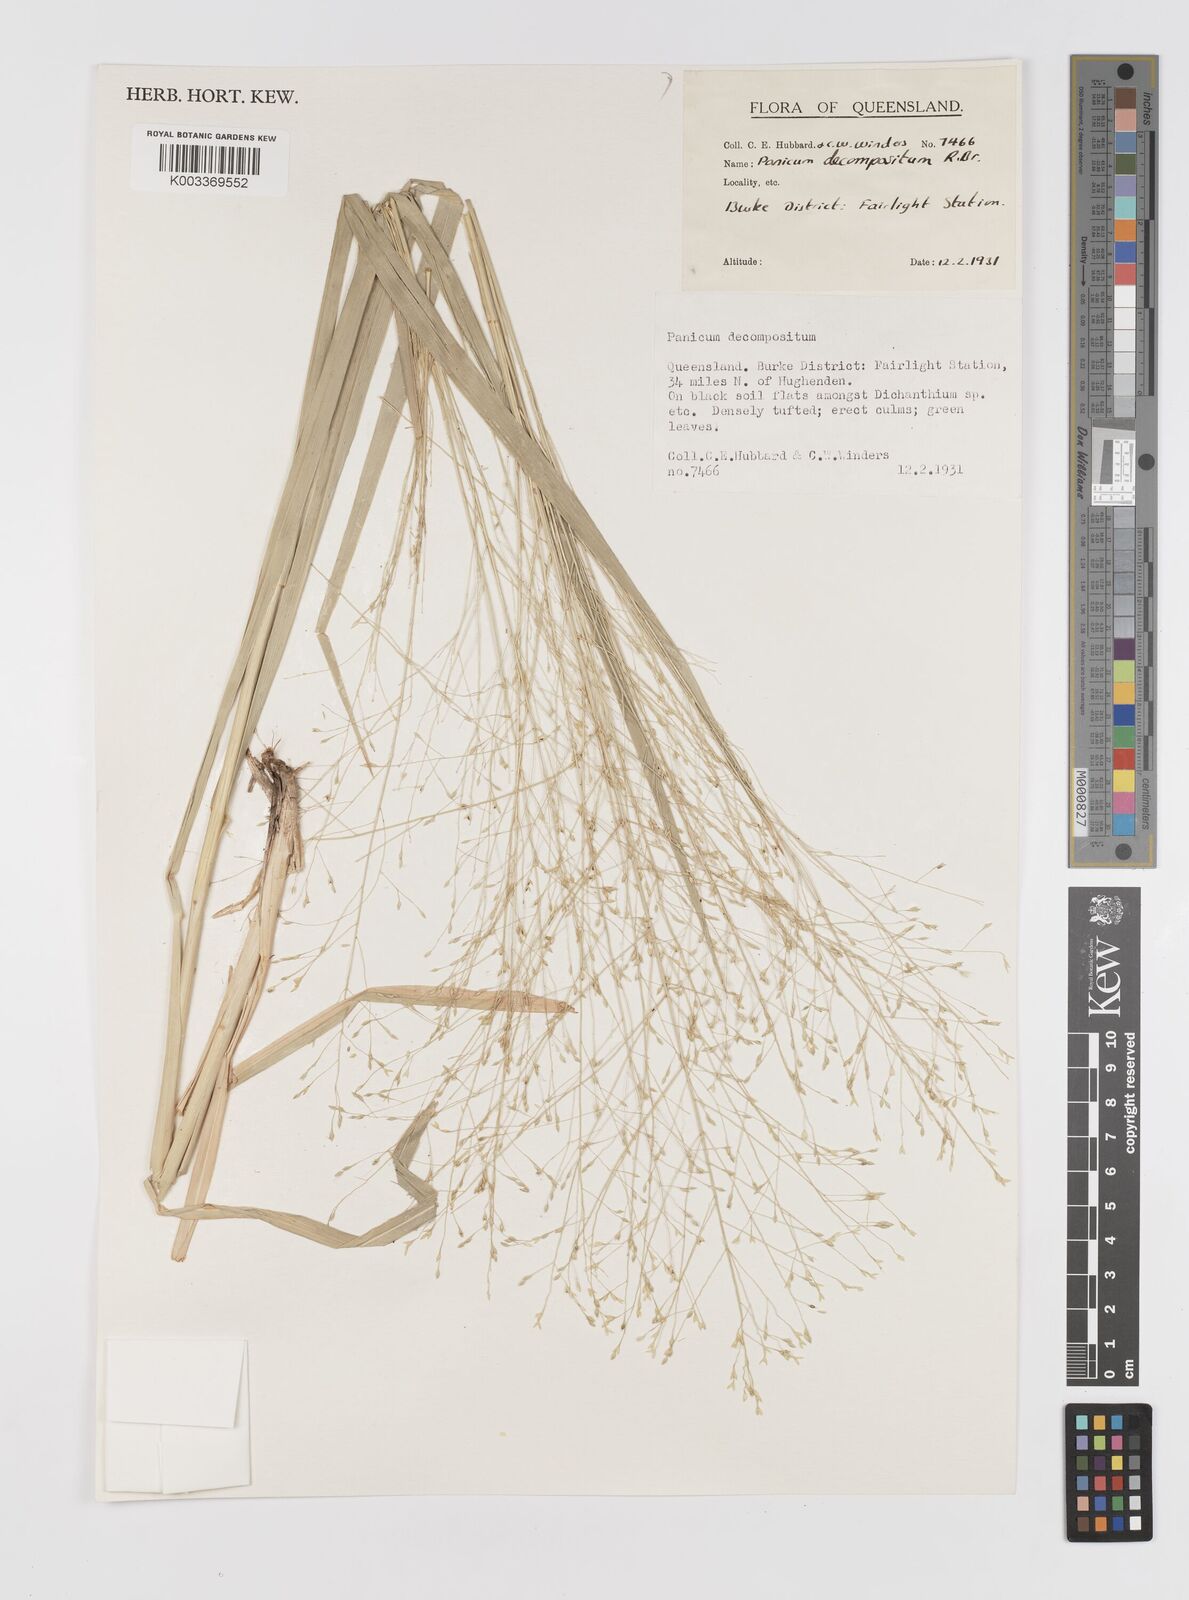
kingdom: Plantae
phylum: Tracheophyta
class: Liliopsida
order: Poales
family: Poaceae
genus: Panicum
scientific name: Panicum decompositum
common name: Australian millet
